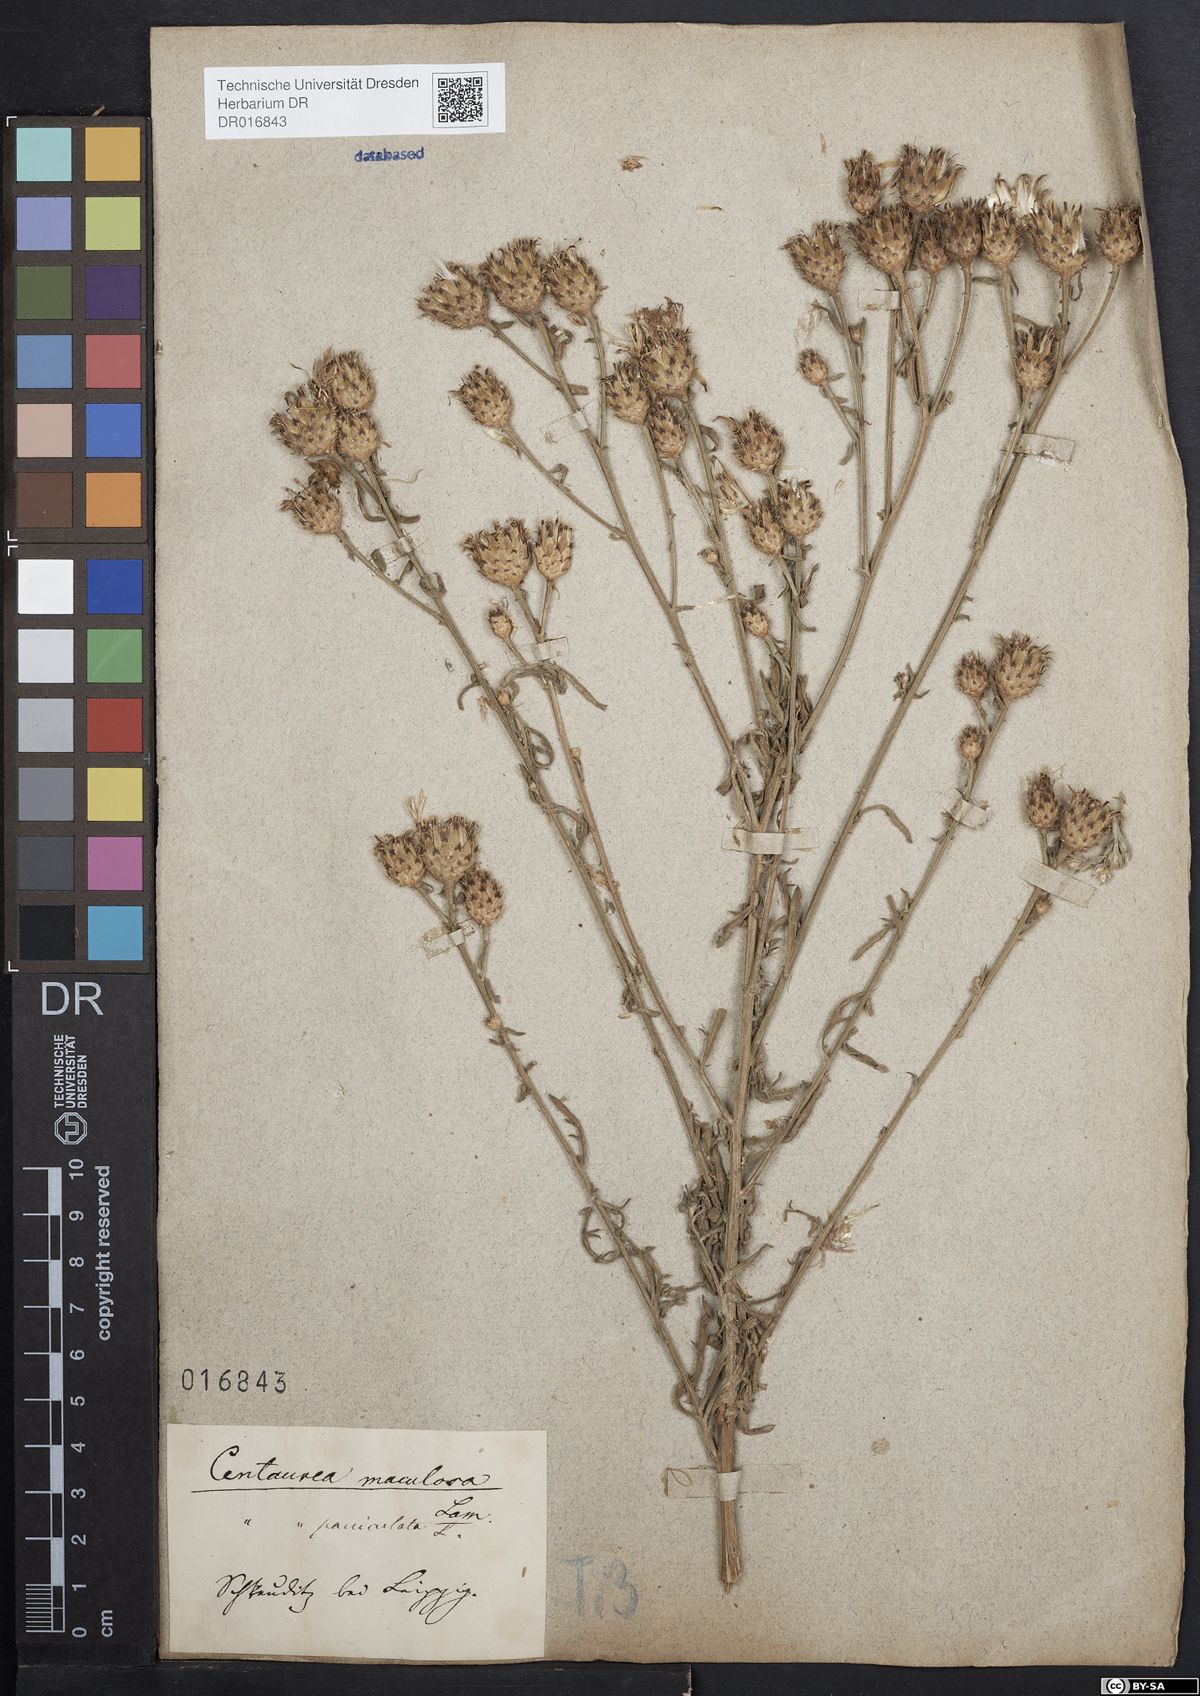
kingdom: Plantae
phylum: Tracheophyta
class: Magnoliopsida
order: Asterales
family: Asteraceae
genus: Centaurea
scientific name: Centaurea stoebe
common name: Spotted knapweed
